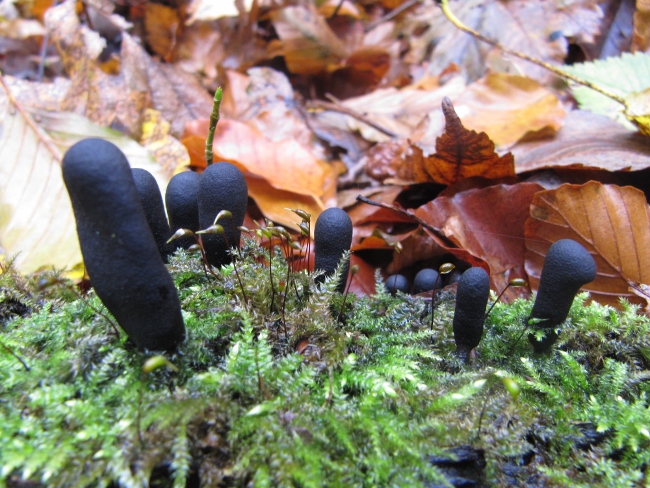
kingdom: Fungi
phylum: Ascomycota
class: Sordariomycetes
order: Xylariales
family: Xylariaceae
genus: Xylaria
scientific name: Xylaria longipes
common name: slank stødsvamp
